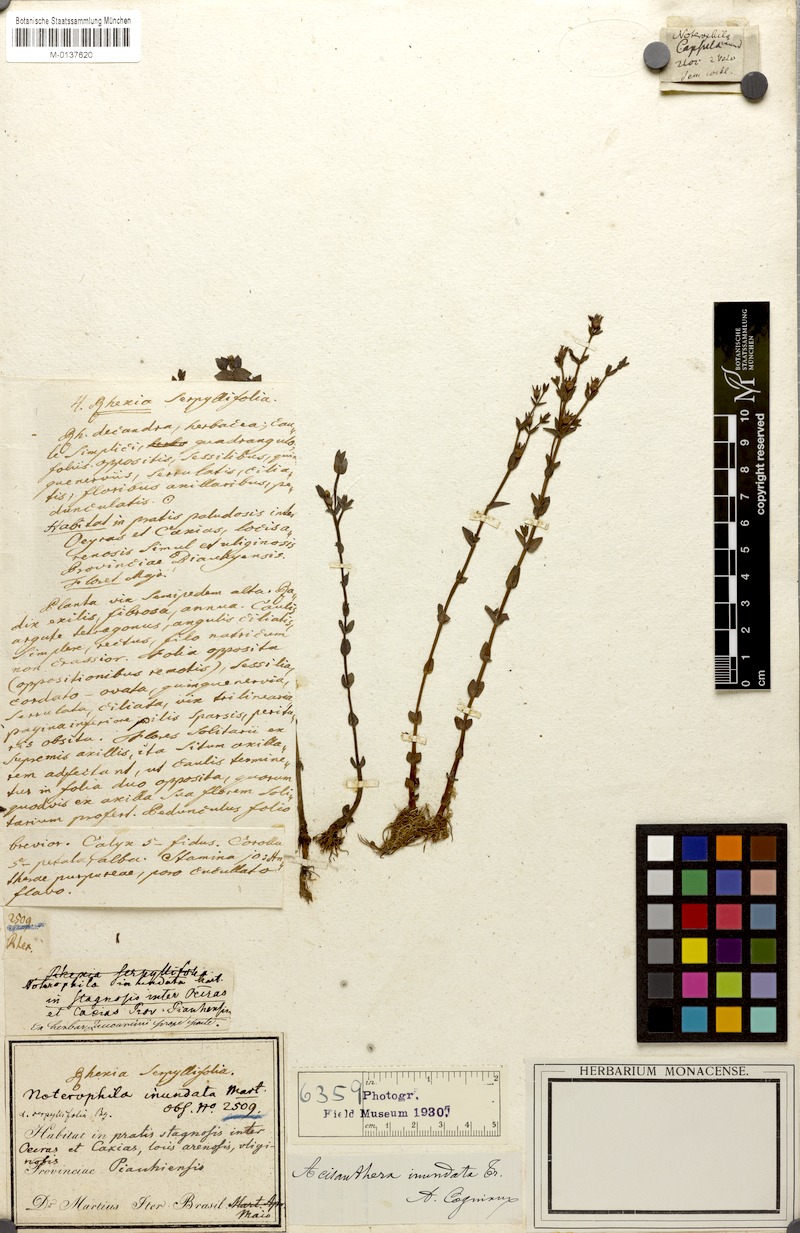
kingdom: Plantae
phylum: Tracheophyta
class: Magnoliopsida
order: Myrtales
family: Melastomataceae
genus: Noterophila
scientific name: Noterophila inundata
